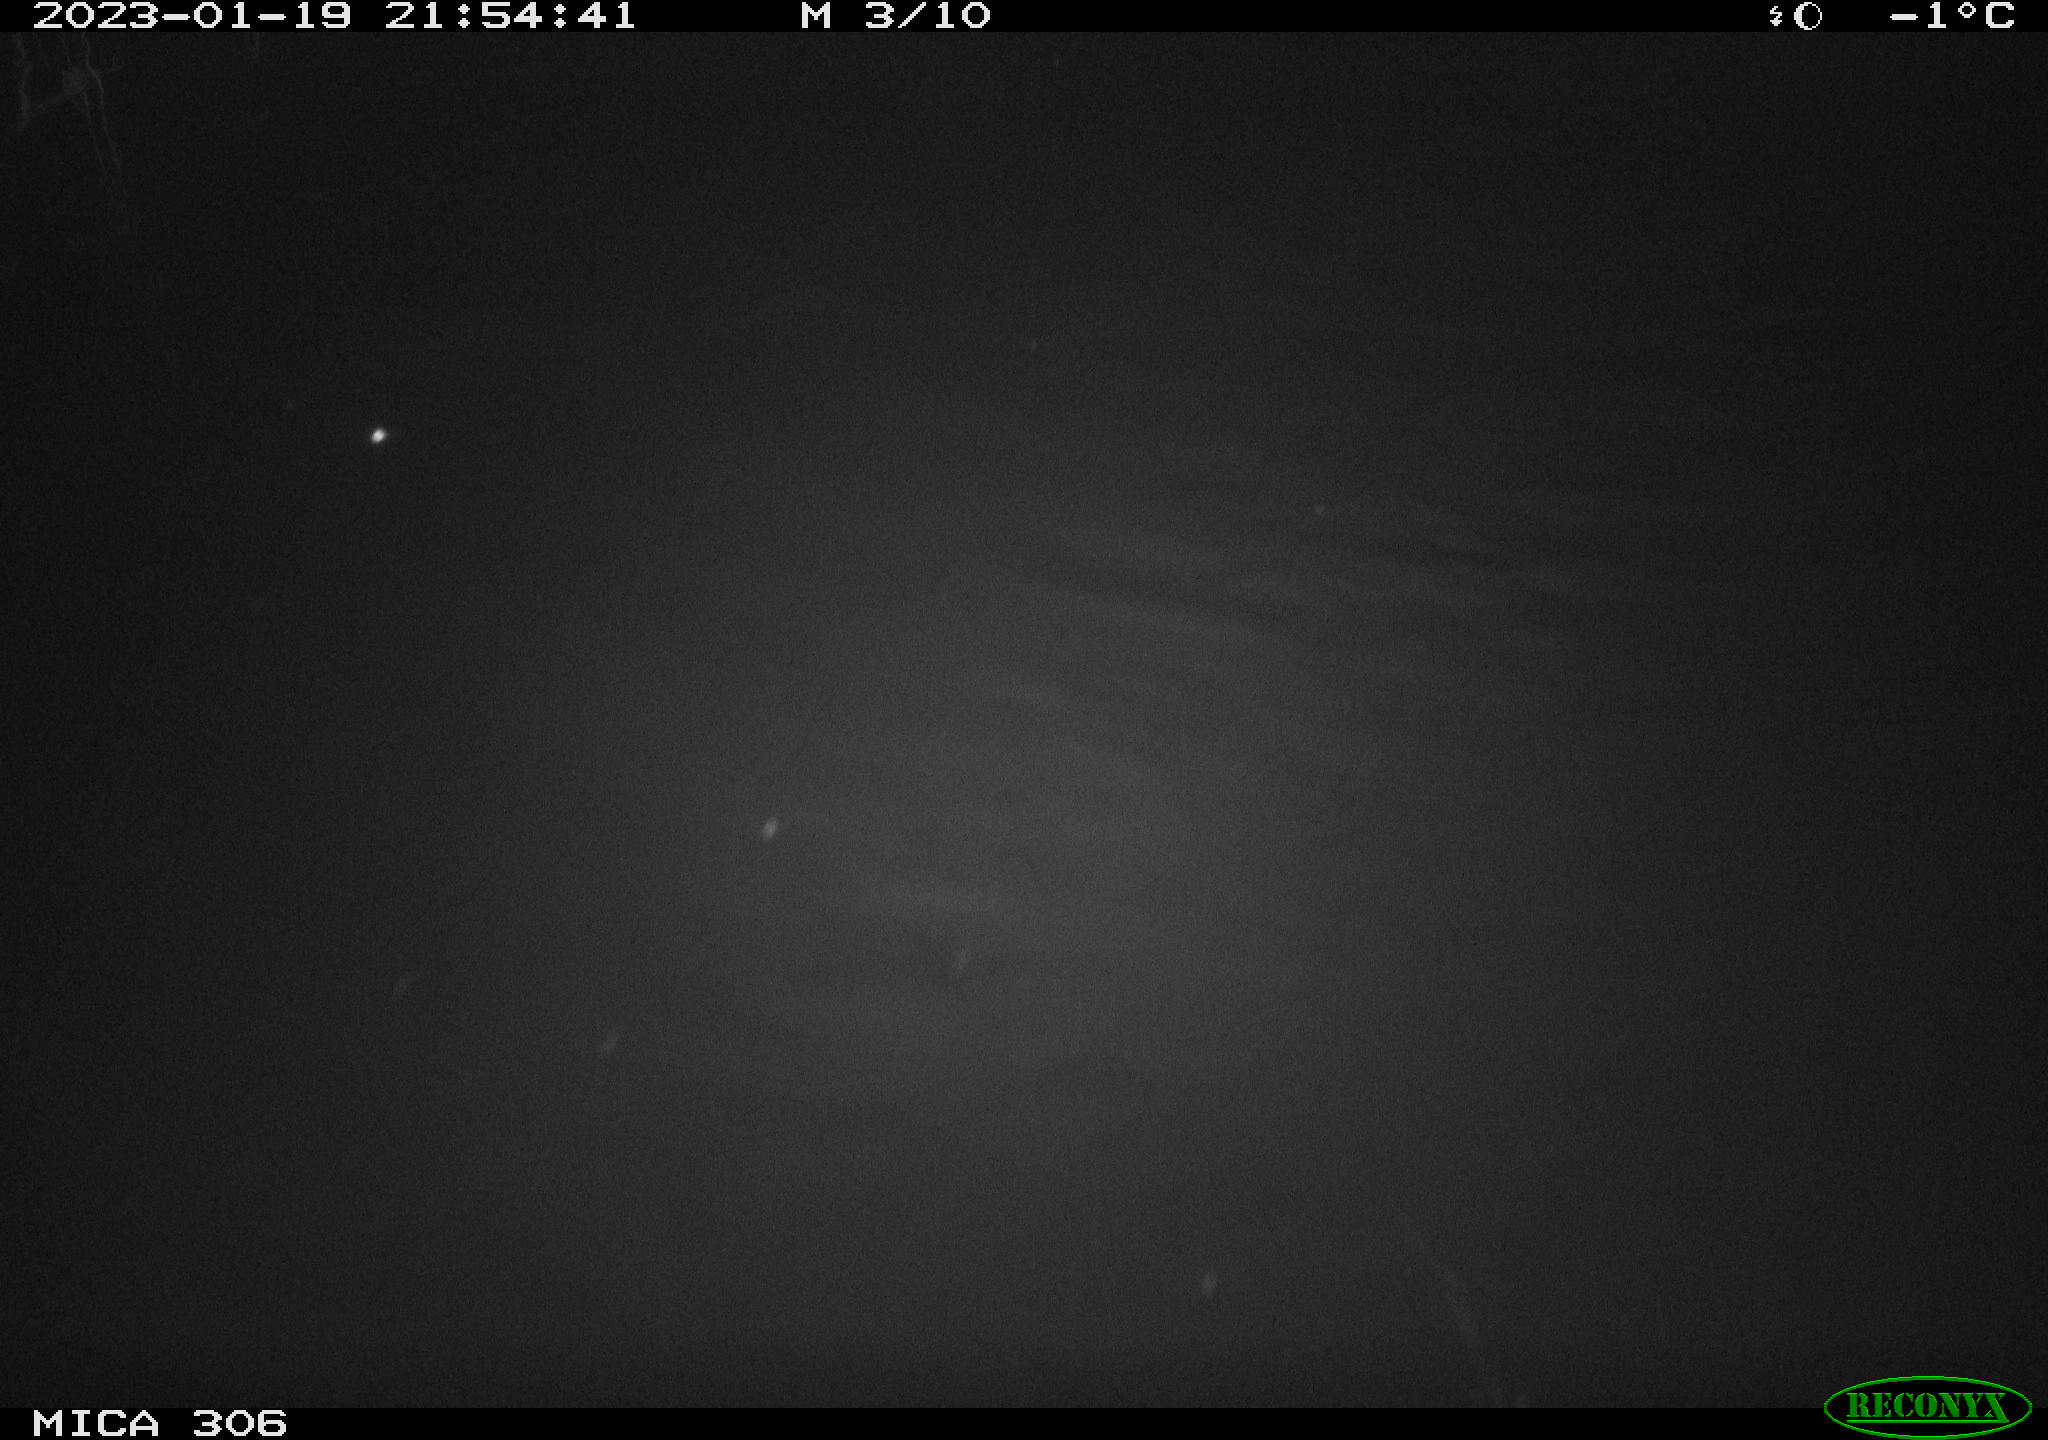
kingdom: Animalia
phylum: Chordata
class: Mammalia
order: Rodentia
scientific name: Rodentia
